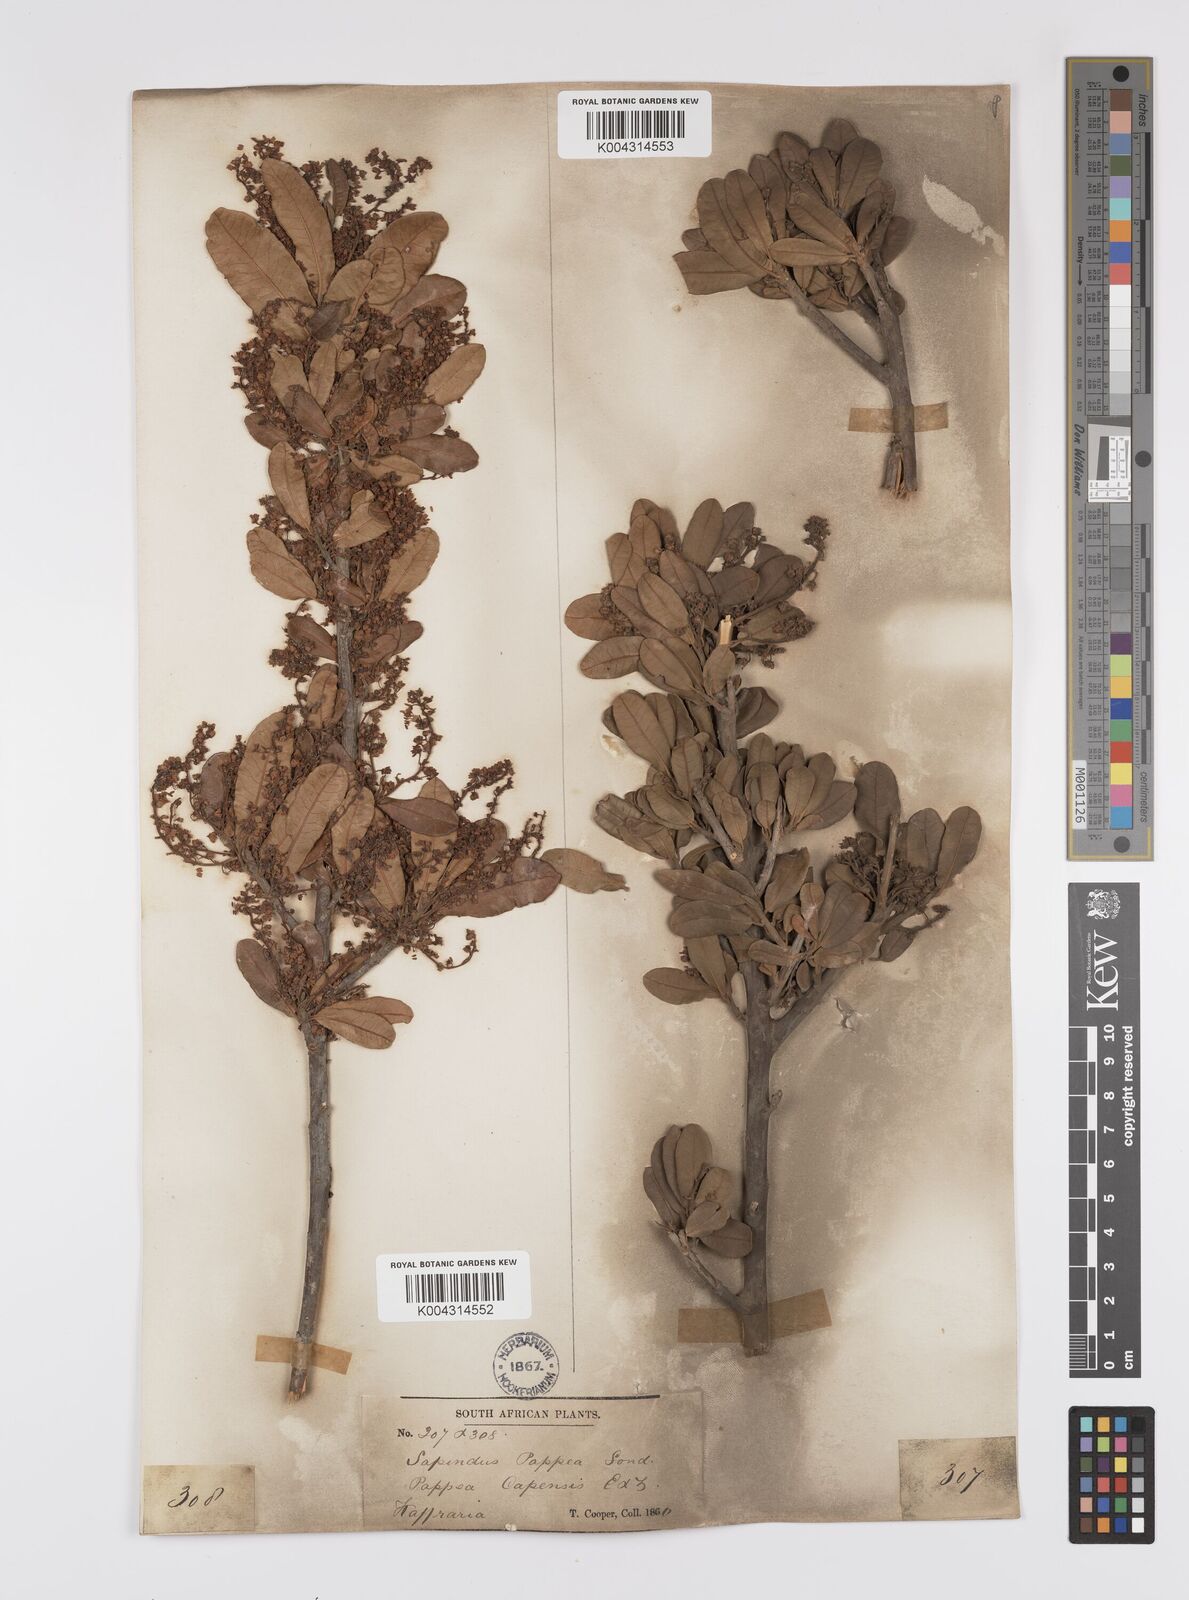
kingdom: Plantae
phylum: Tracheophyta
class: Magnoliopsida
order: Sapindales
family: Sapindaceae
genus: Pappea
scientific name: Pappea capensis
